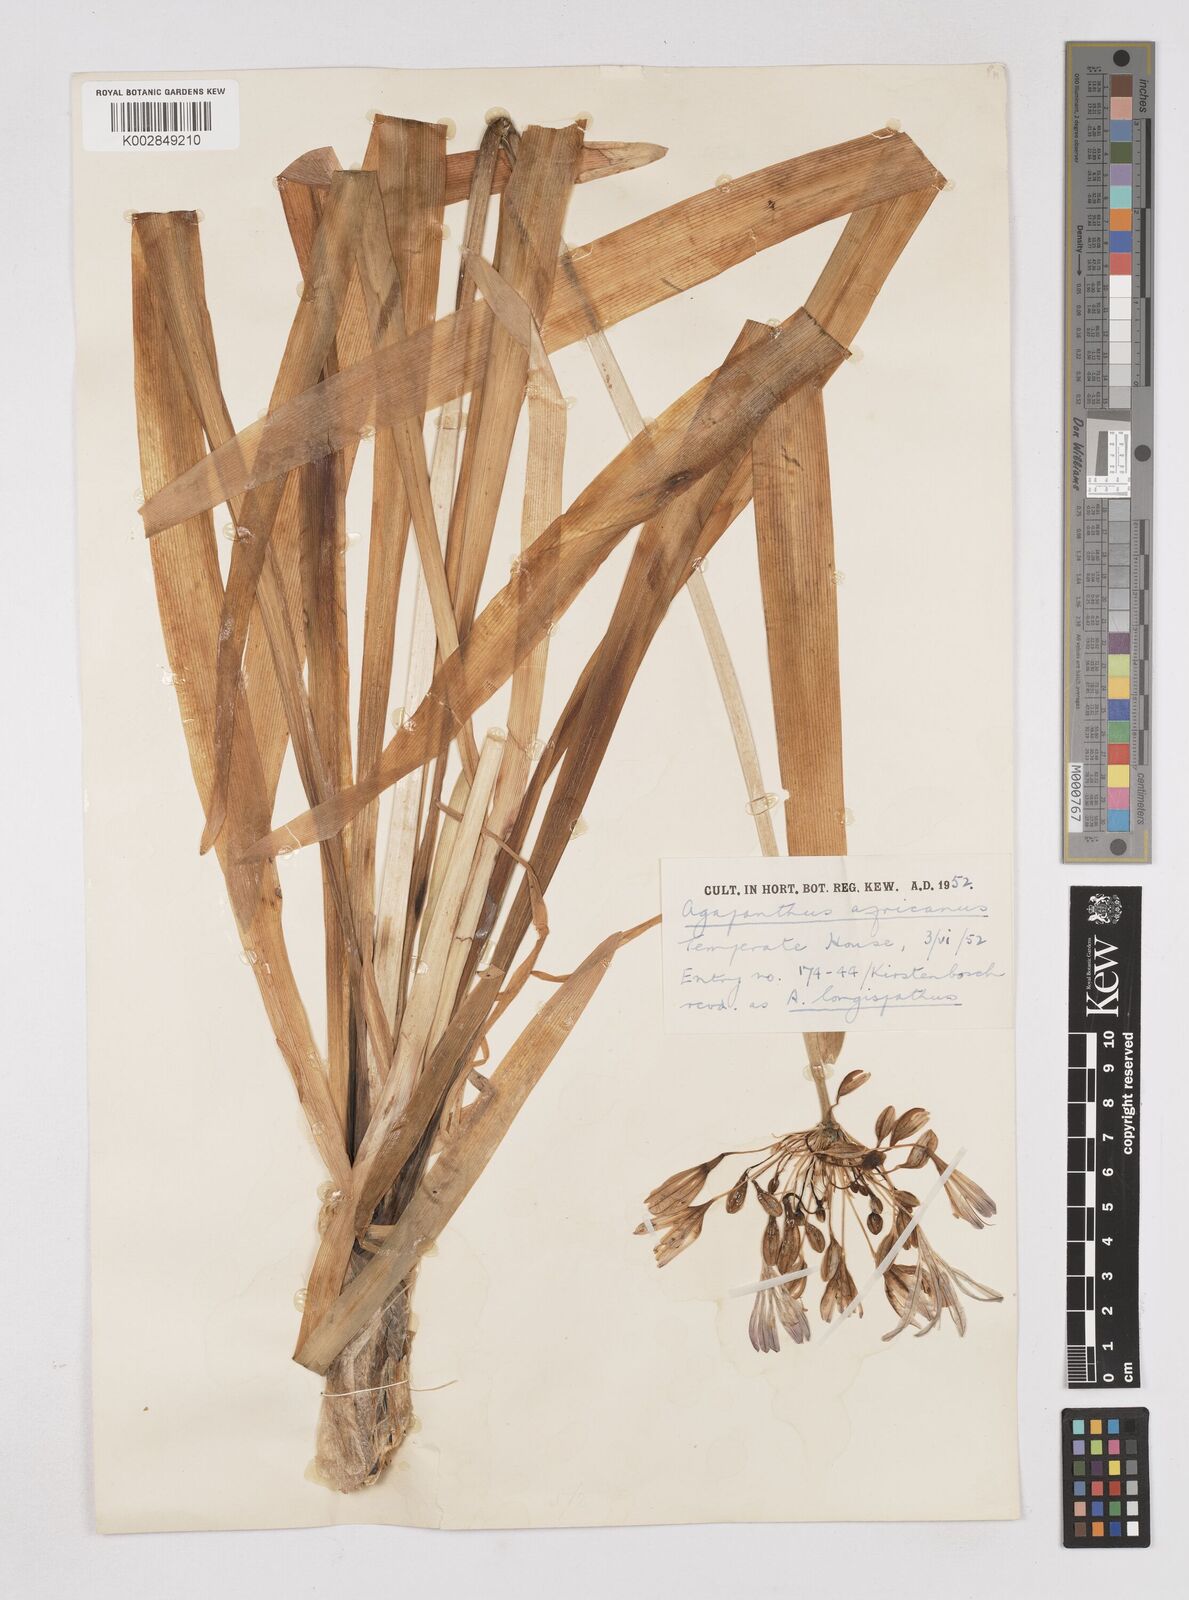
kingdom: Plantae
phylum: Tracheophyta
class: Liliopsida
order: Asparagales
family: Amaryllidaceae
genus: Agapanthus
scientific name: Agapanthus africanus
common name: Lily-of-the-nile
